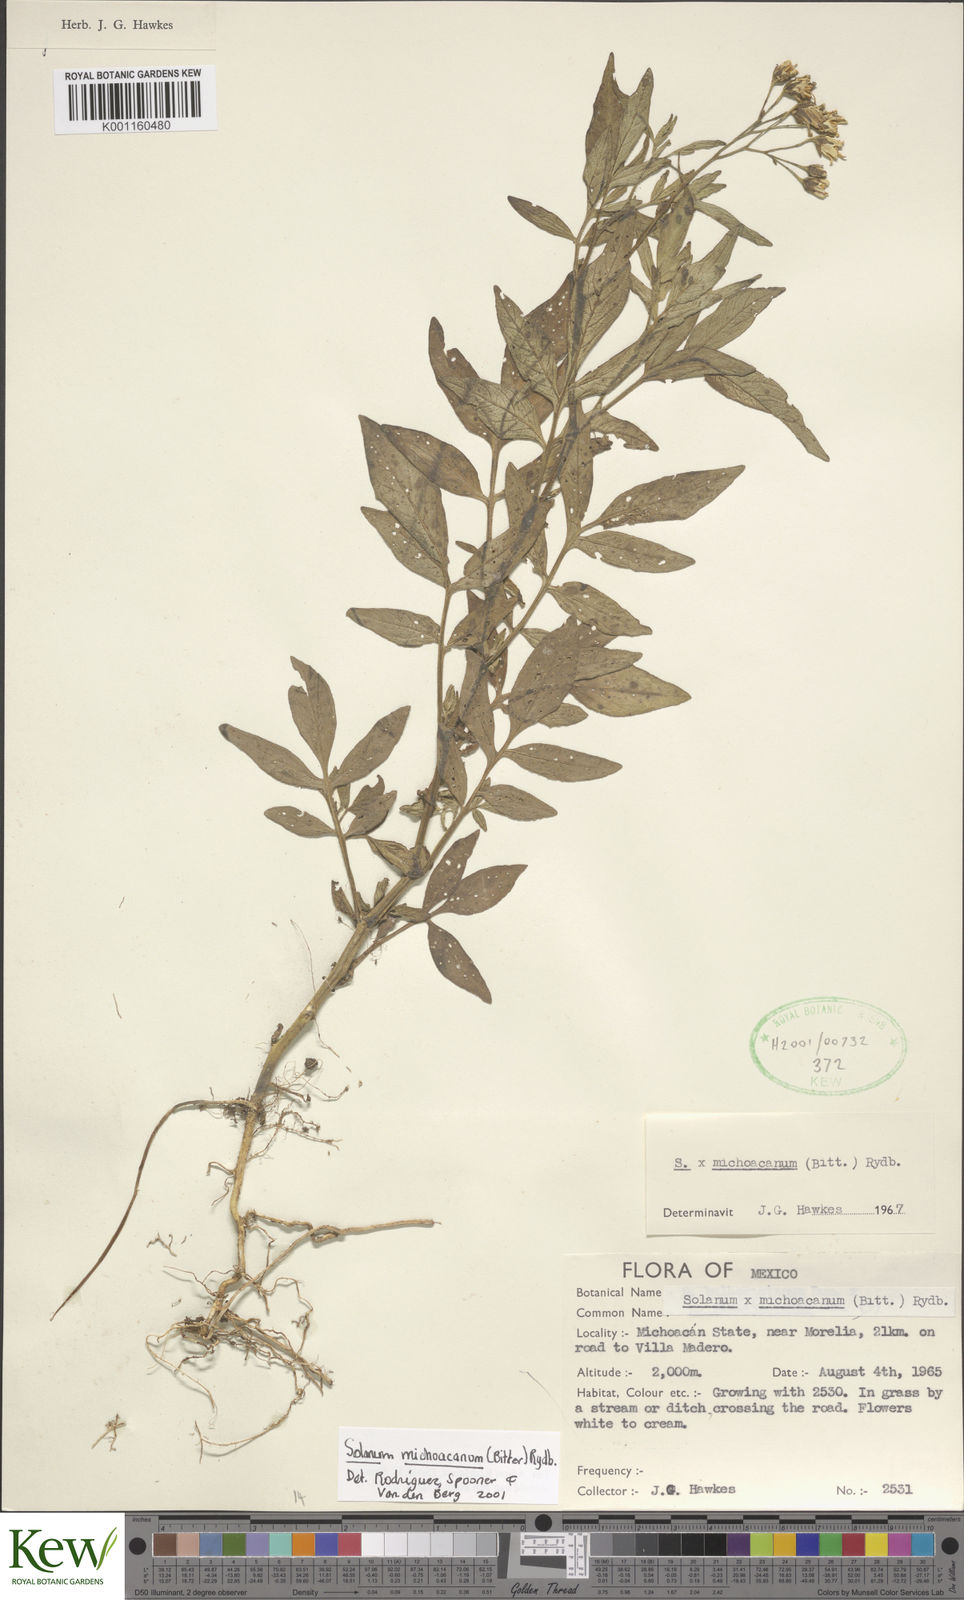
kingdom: Plantae
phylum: Tracheophyta
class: Magnoliopsida
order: Solanales
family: Solanaceae
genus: Solanum
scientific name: Solanum bulbocastanum
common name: Ornamental nightshade
